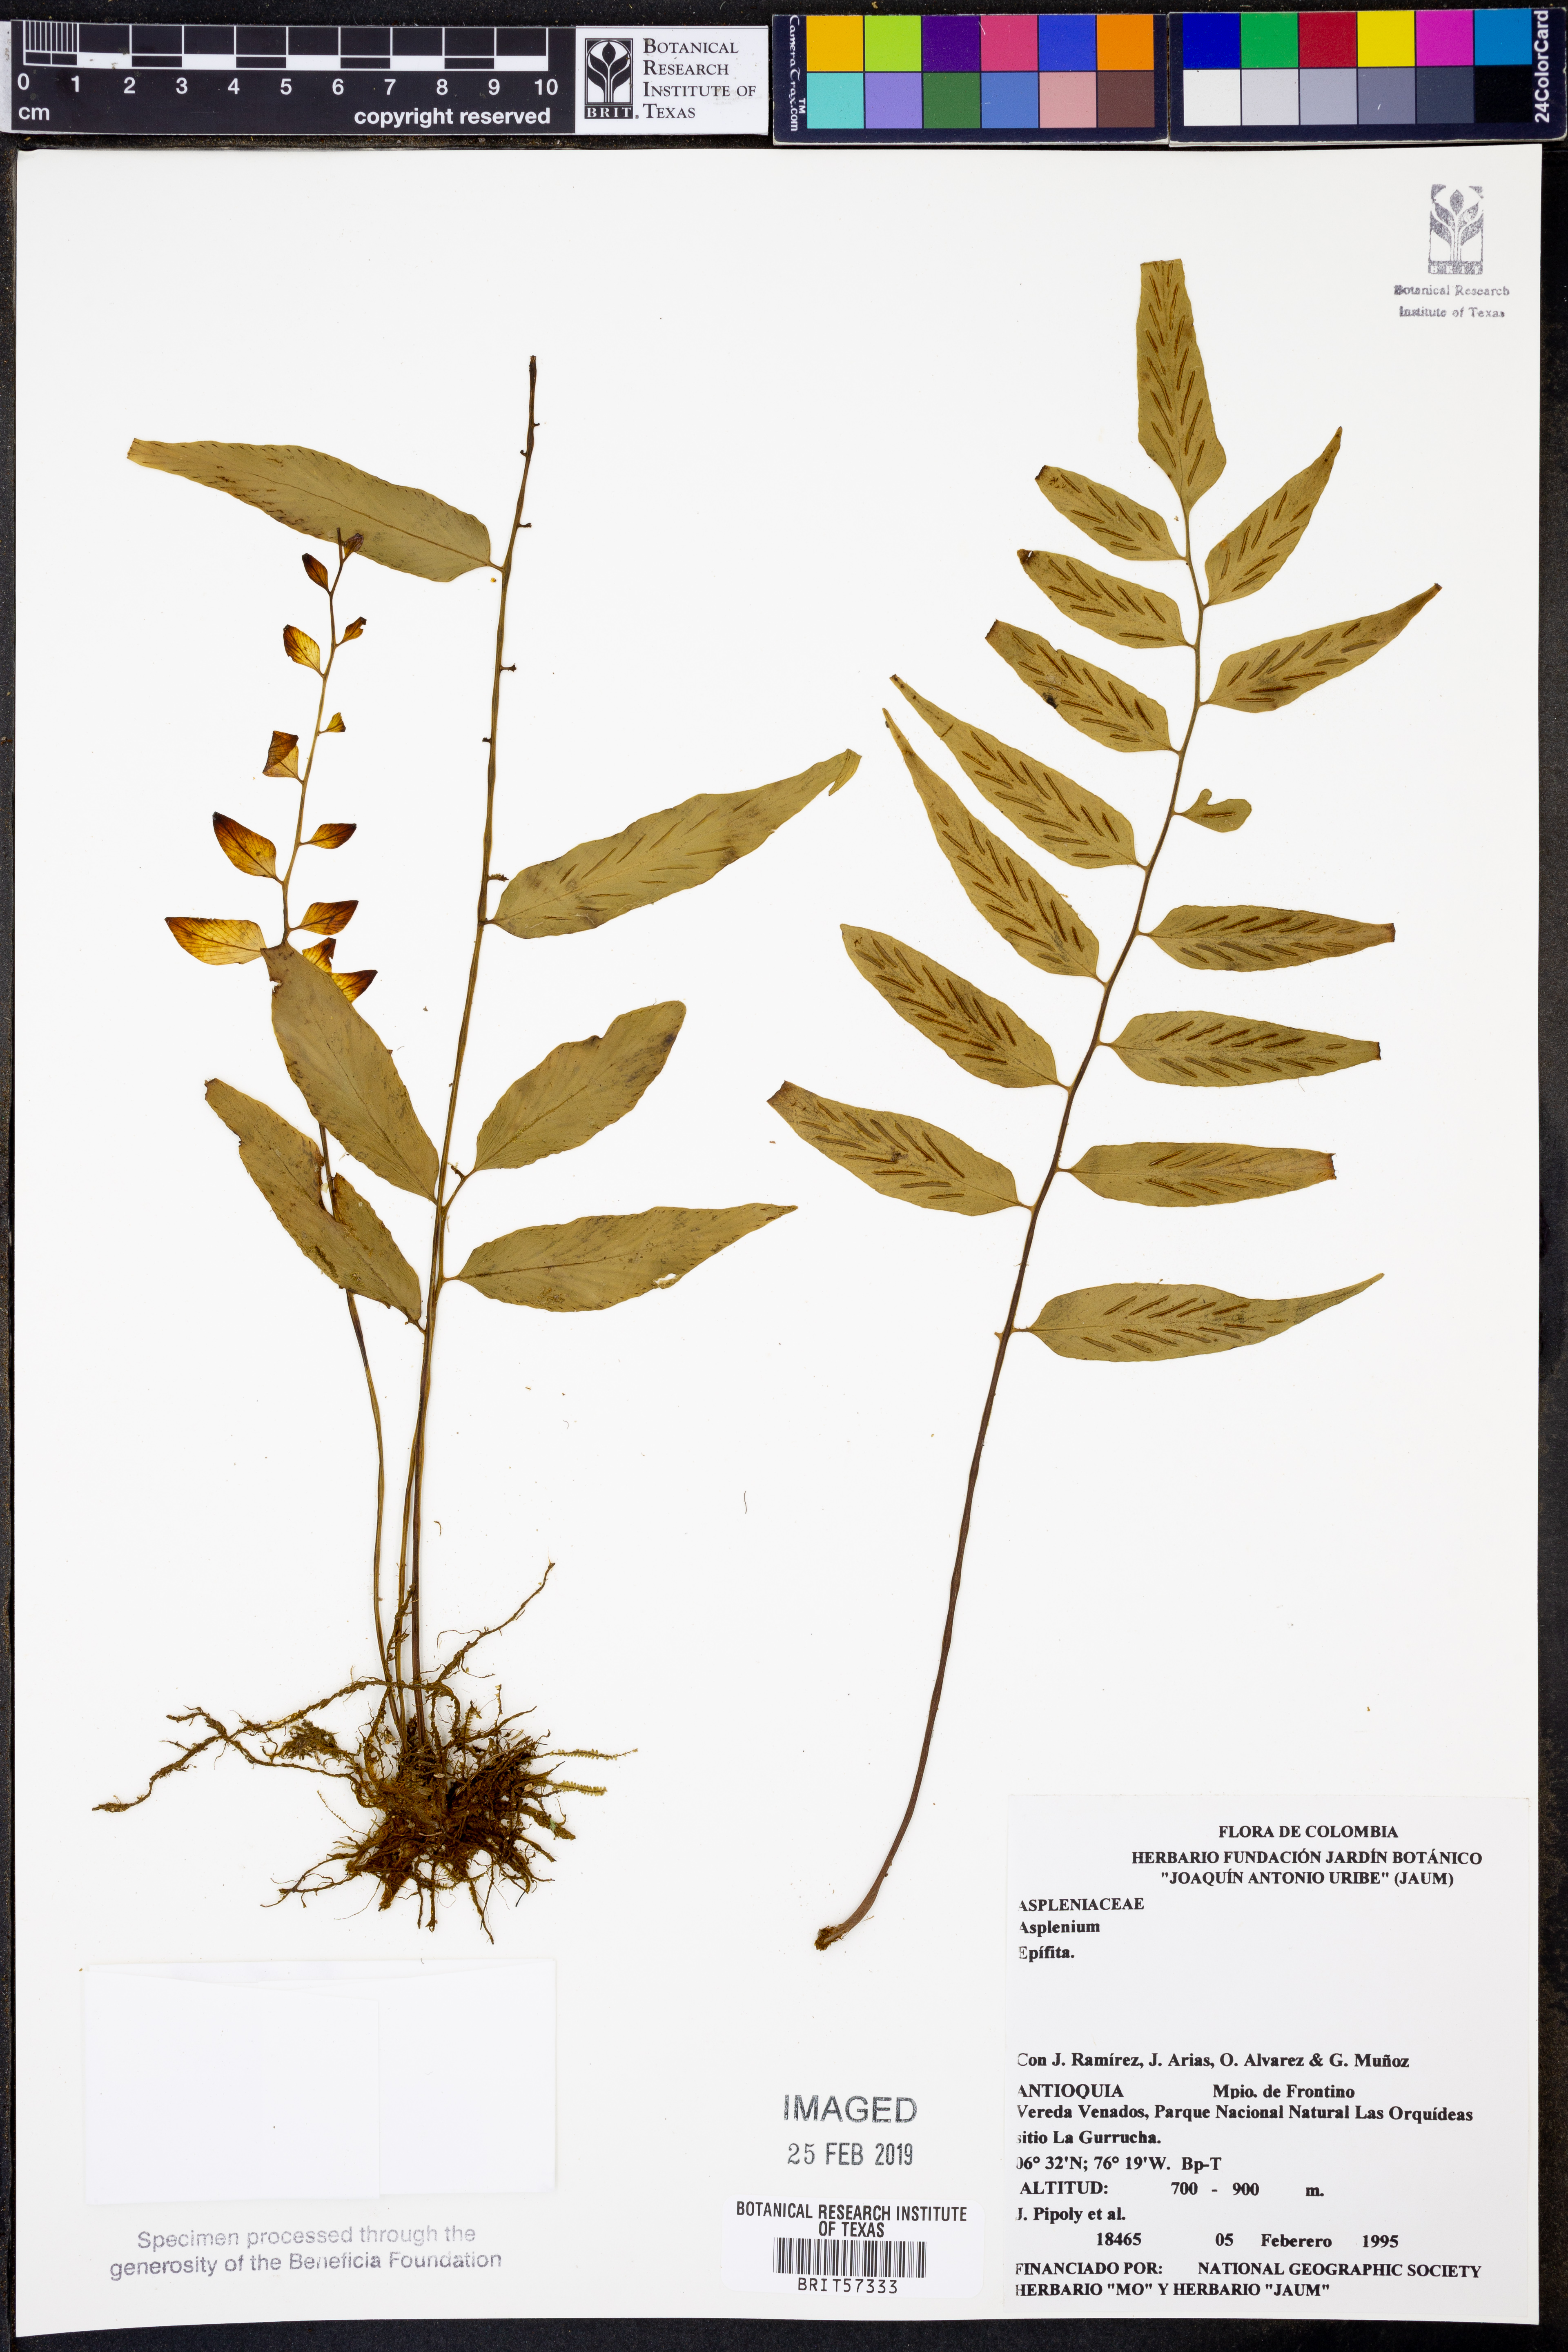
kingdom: Plantae
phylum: Tracheophyta
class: Polypodiopsida
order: Polypodiales
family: Aspleniaceae
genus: Asplenium
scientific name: Asplenium
